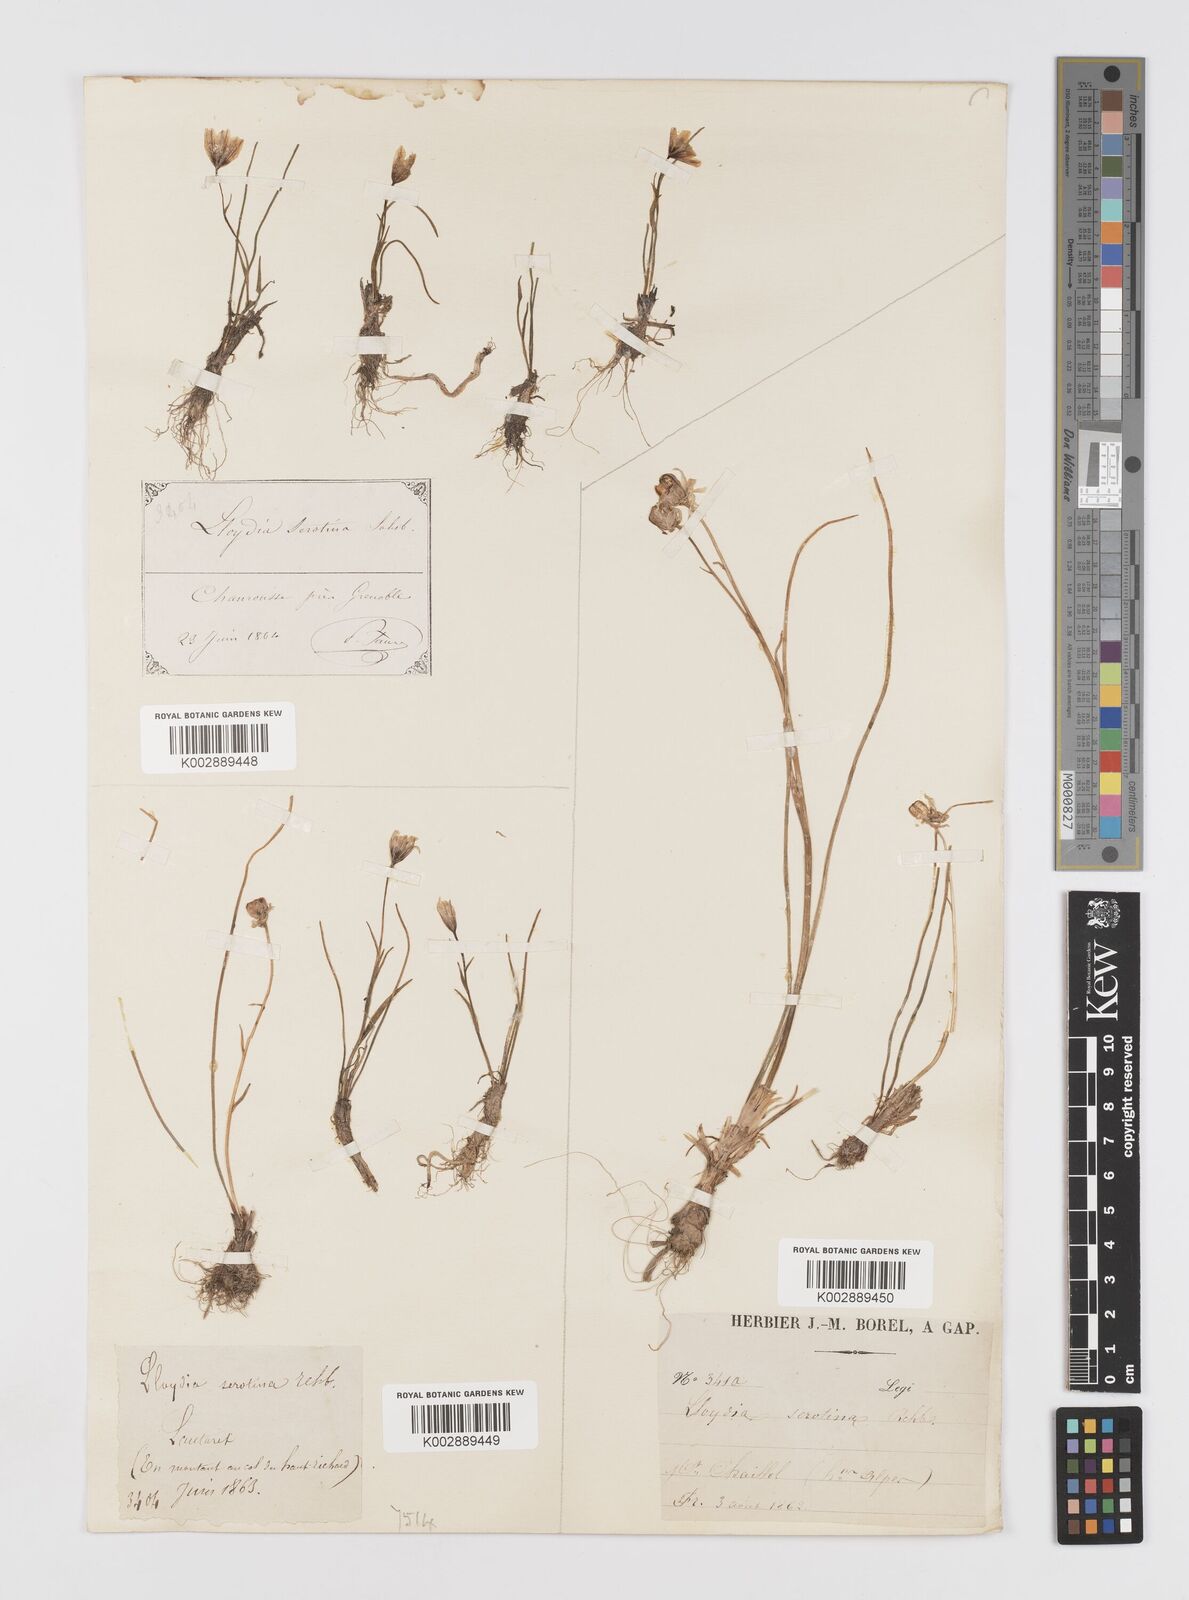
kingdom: Plantae
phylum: Tracheophyta
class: Liliopsida
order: Liliales
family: Liliaceae
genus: Gagea
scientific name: Gagea
